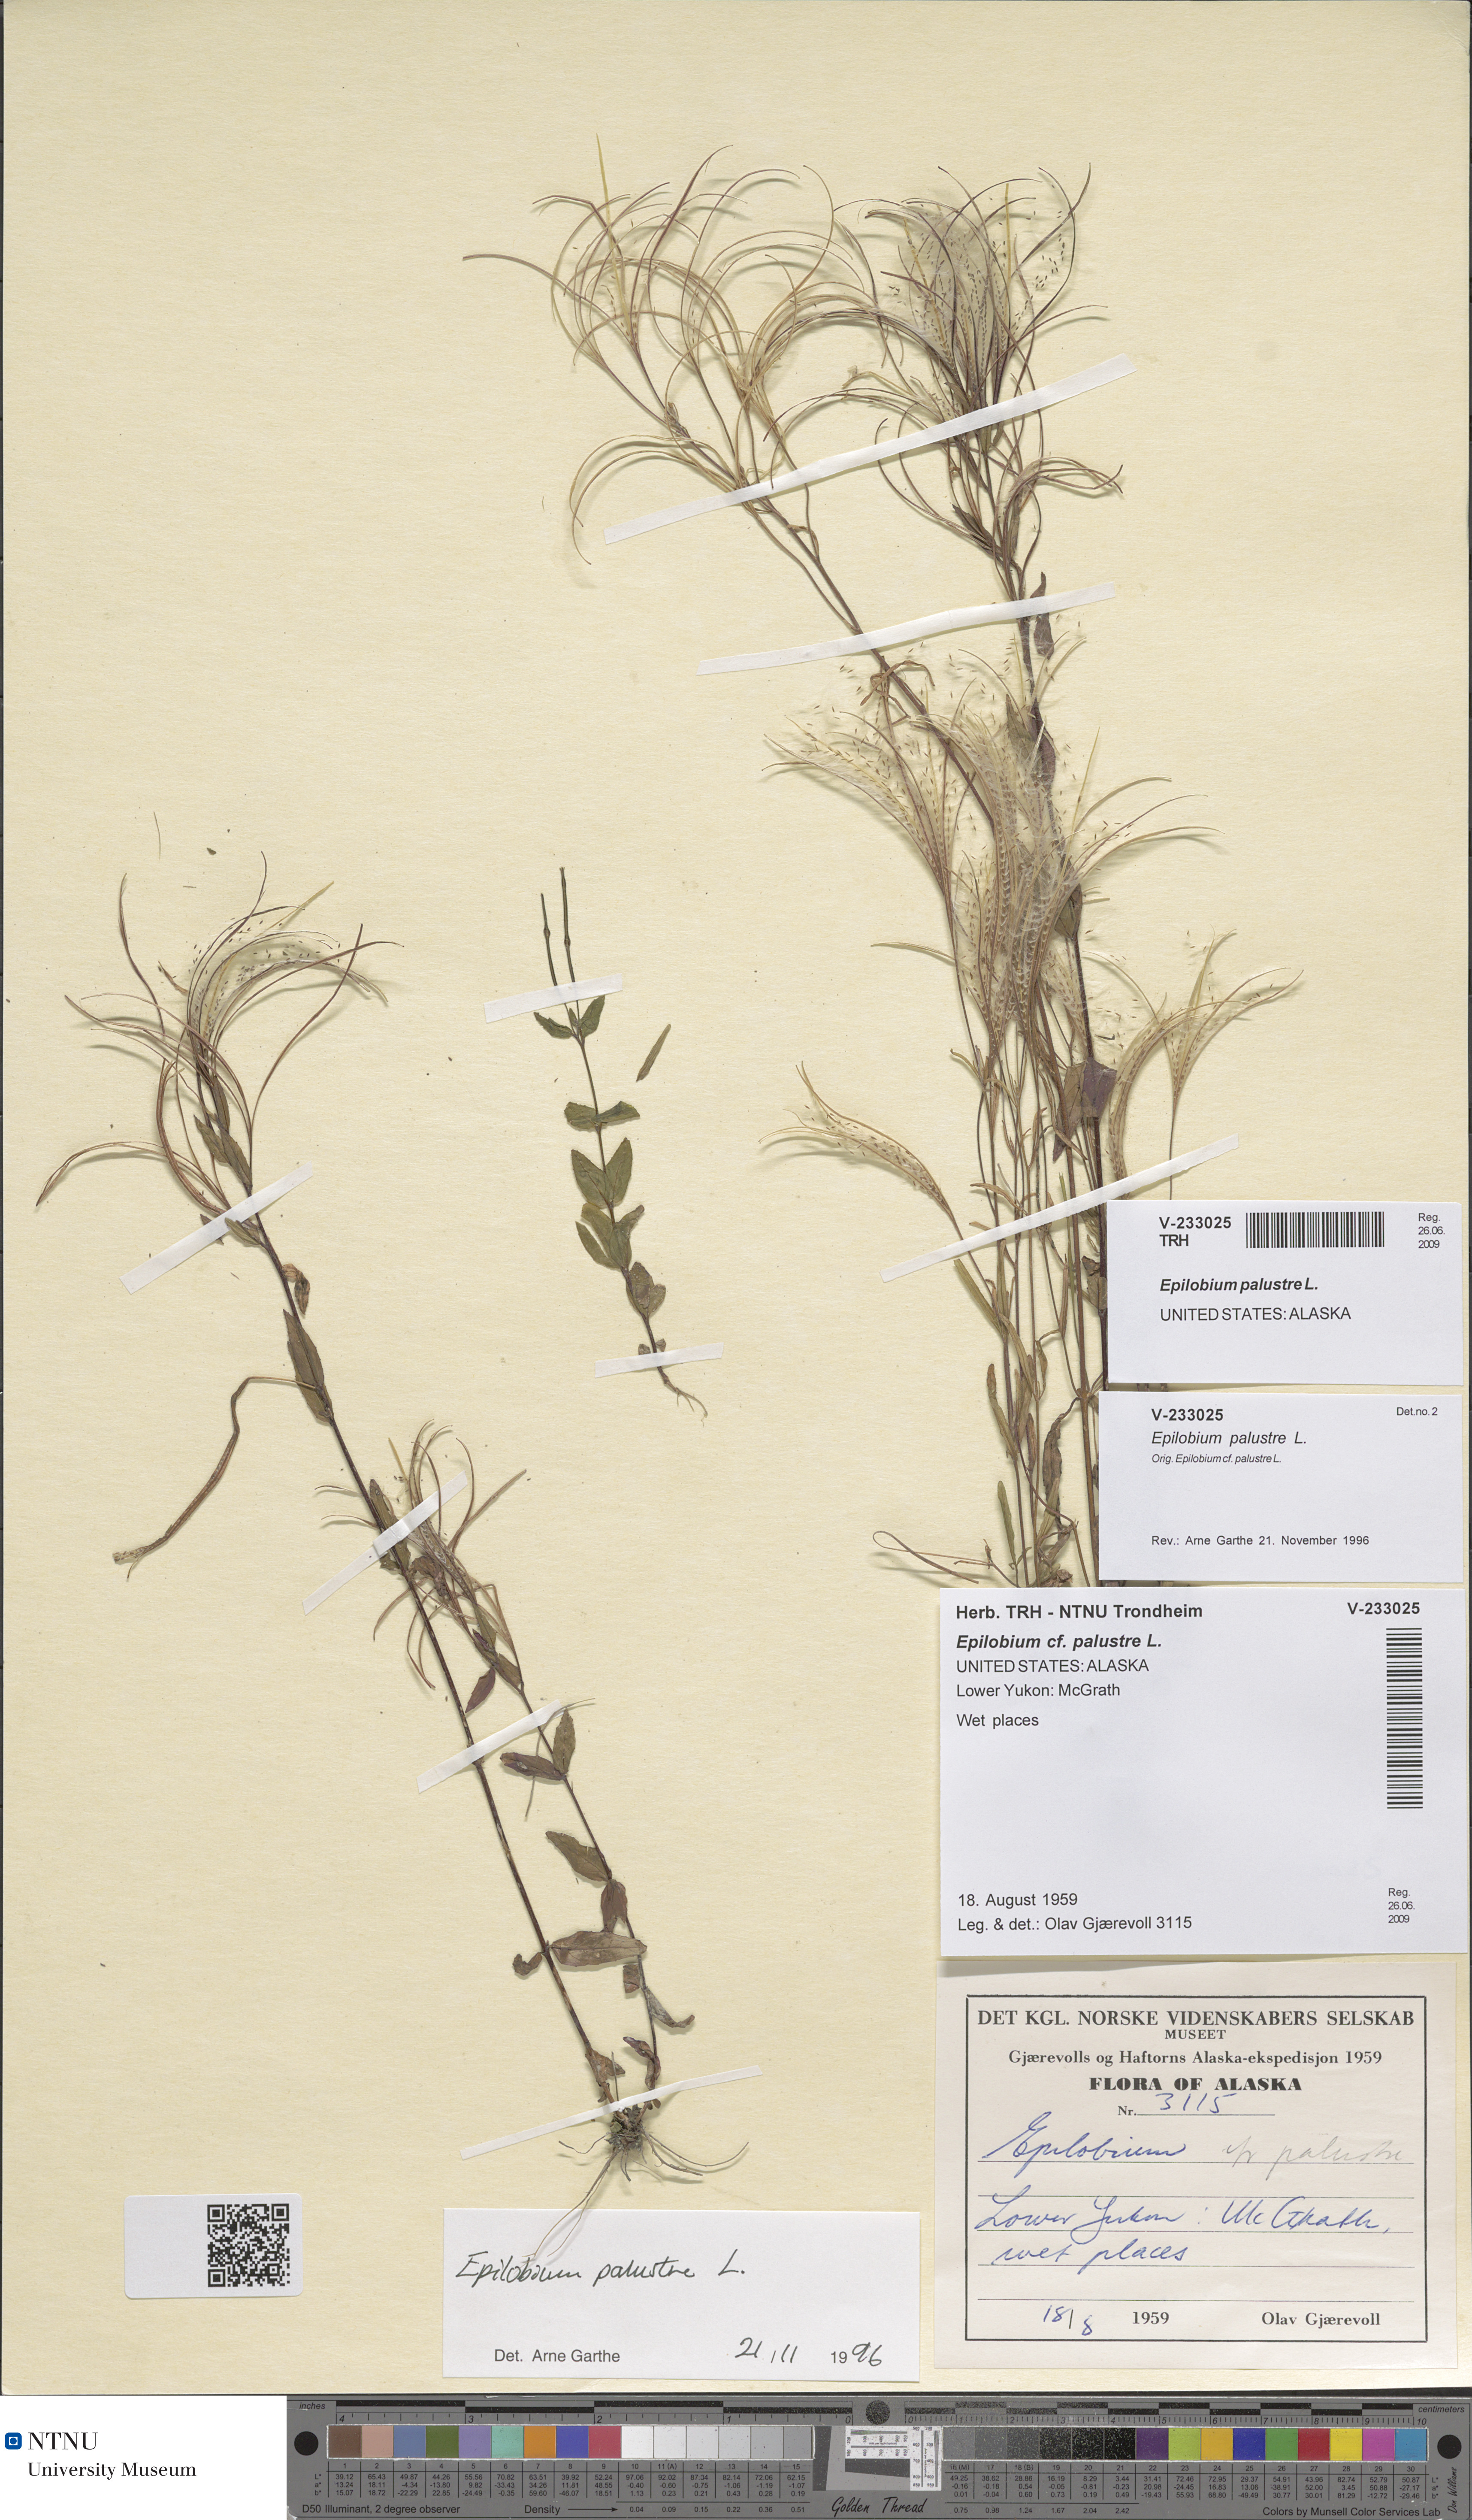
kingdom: Plantae
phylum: Tracheophyta
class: Magnoliopsida
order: Myrtales
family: Onagraceae
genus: Epilobium
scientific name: Epilobium palustre
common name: Marsh willowherb
